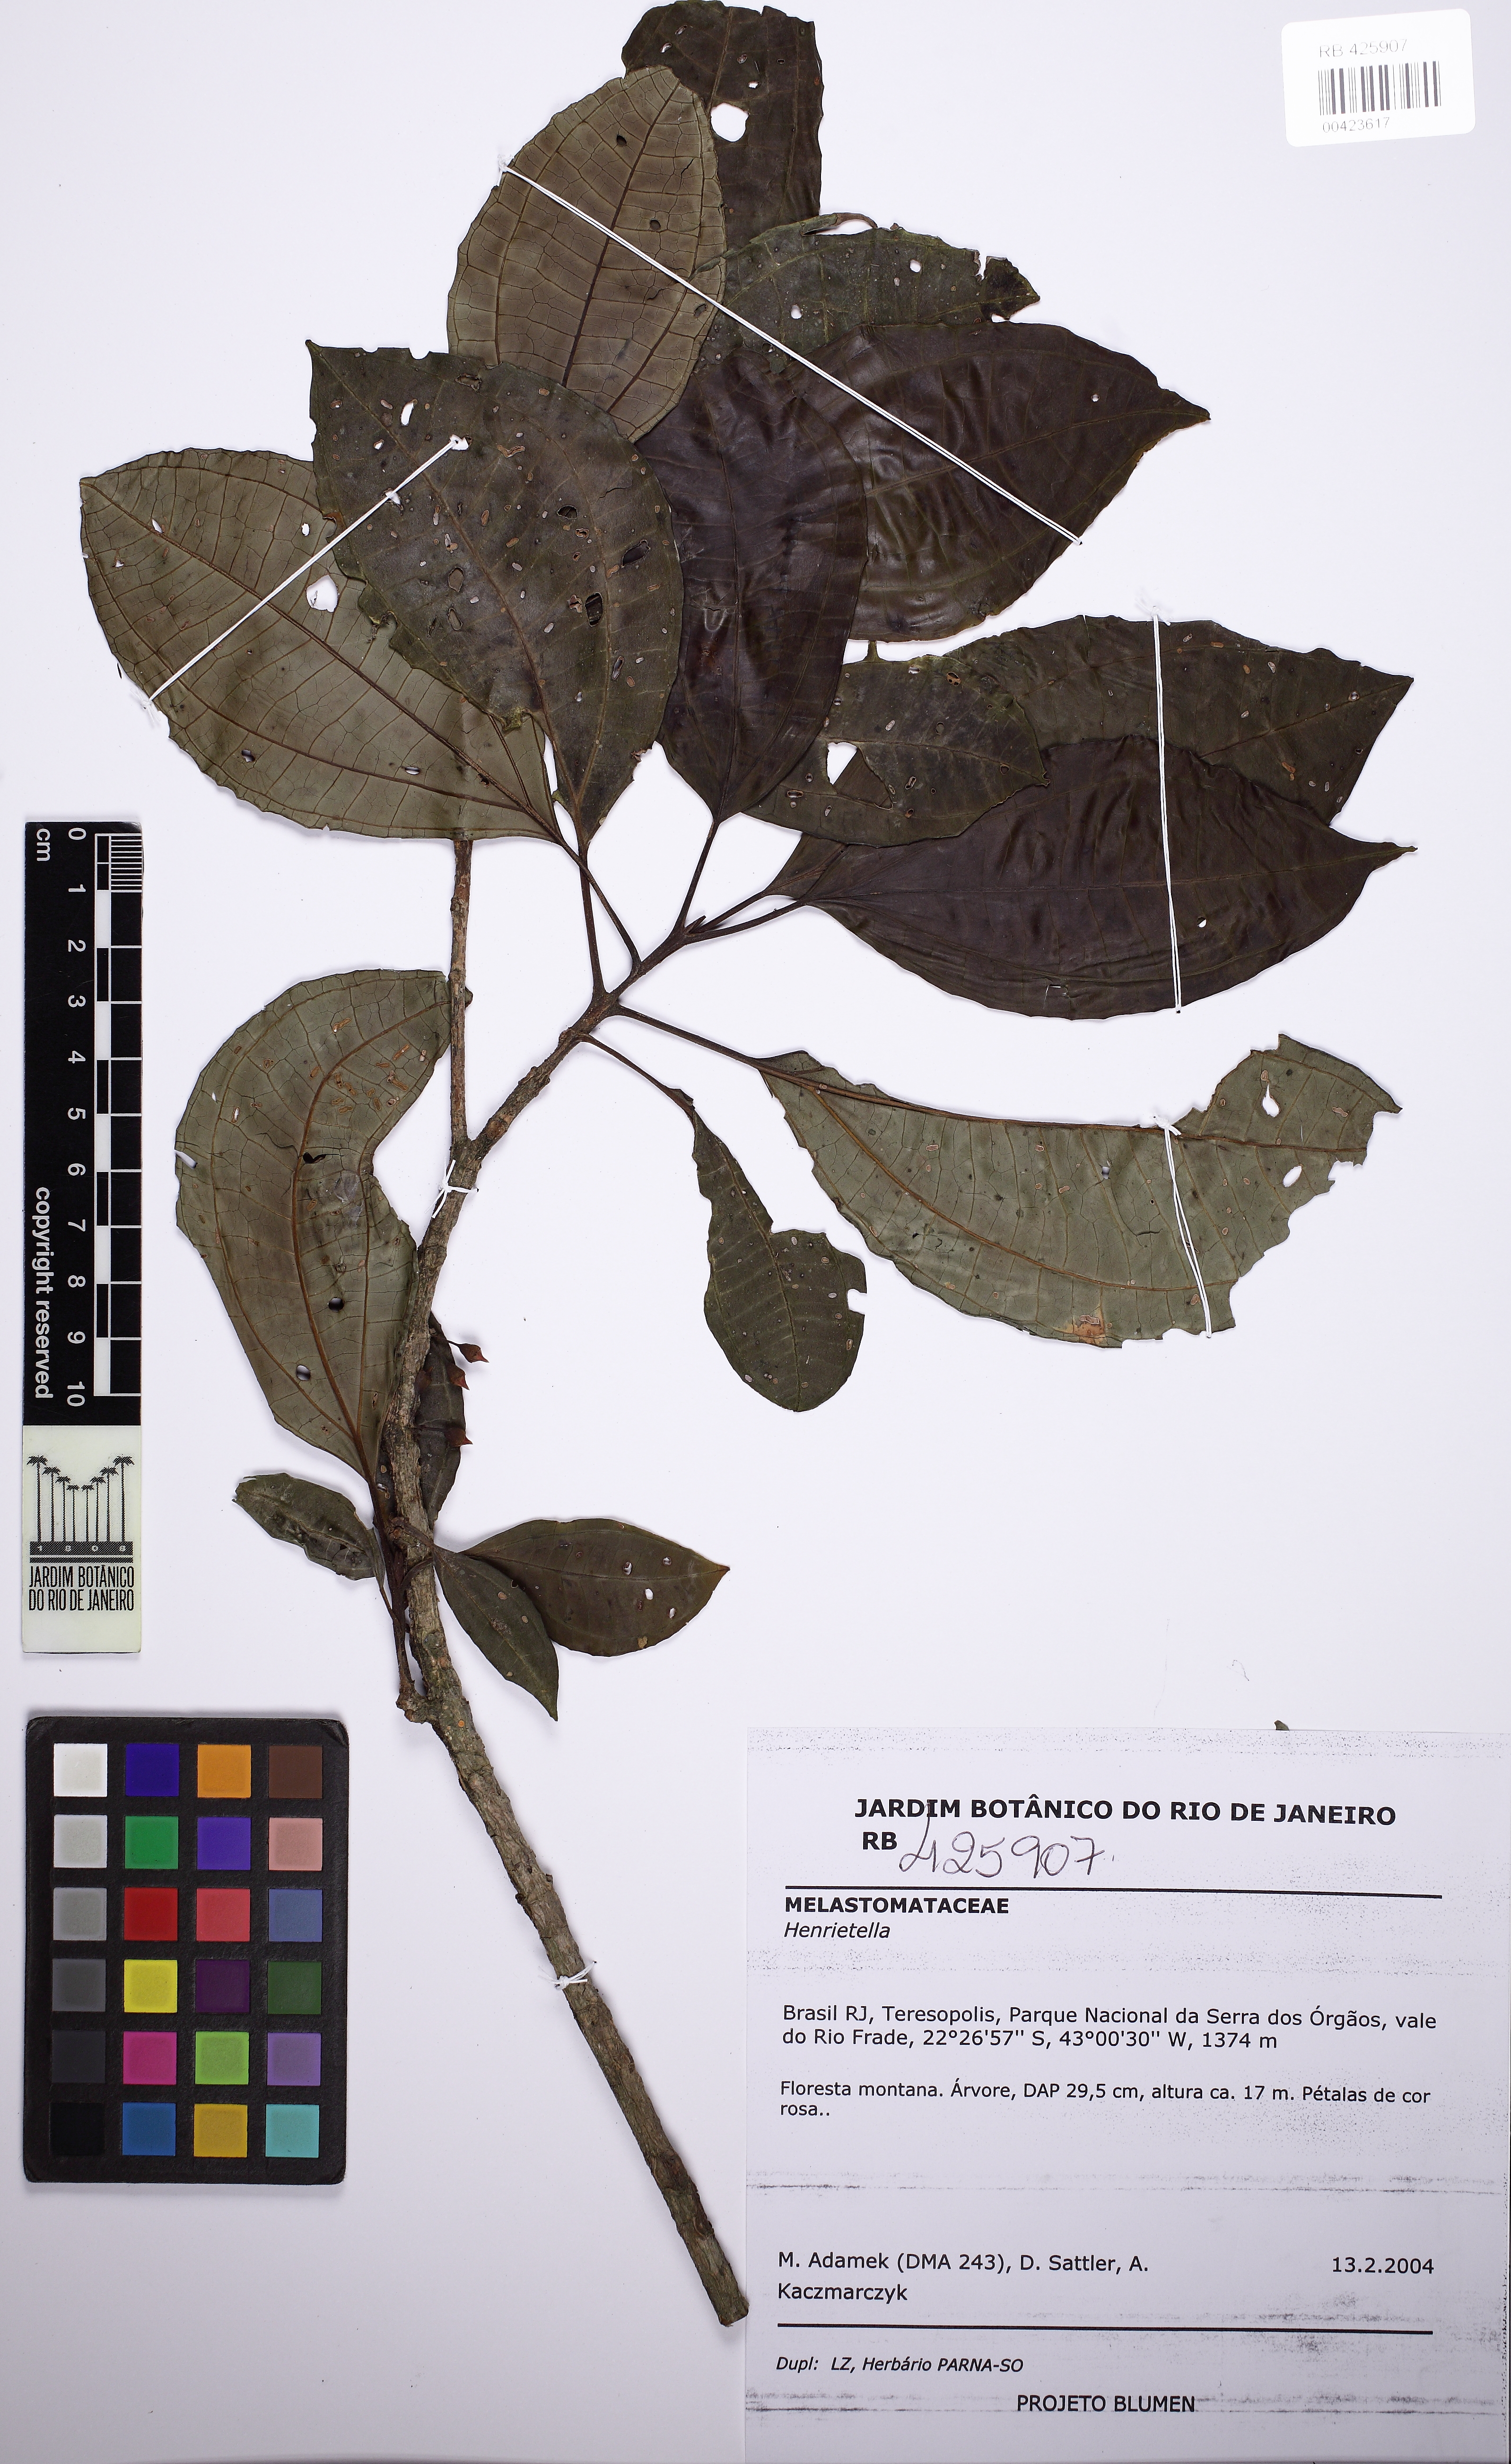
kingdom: Plantae
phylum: Tracheophyta
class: Magnoliopsida
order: Myrtales
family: Melastomataceae
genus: Henriettea
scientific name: Henriettea umbelluliflora
